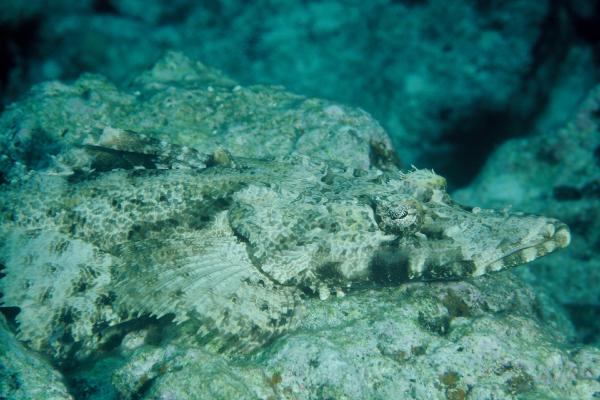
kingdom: Animalia
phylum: Chordata
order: Scorpaeniformes
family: Platycephalidae
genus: Cymbacephalus
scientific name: Cymbacephalus beauforti
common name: Crocodile fish
